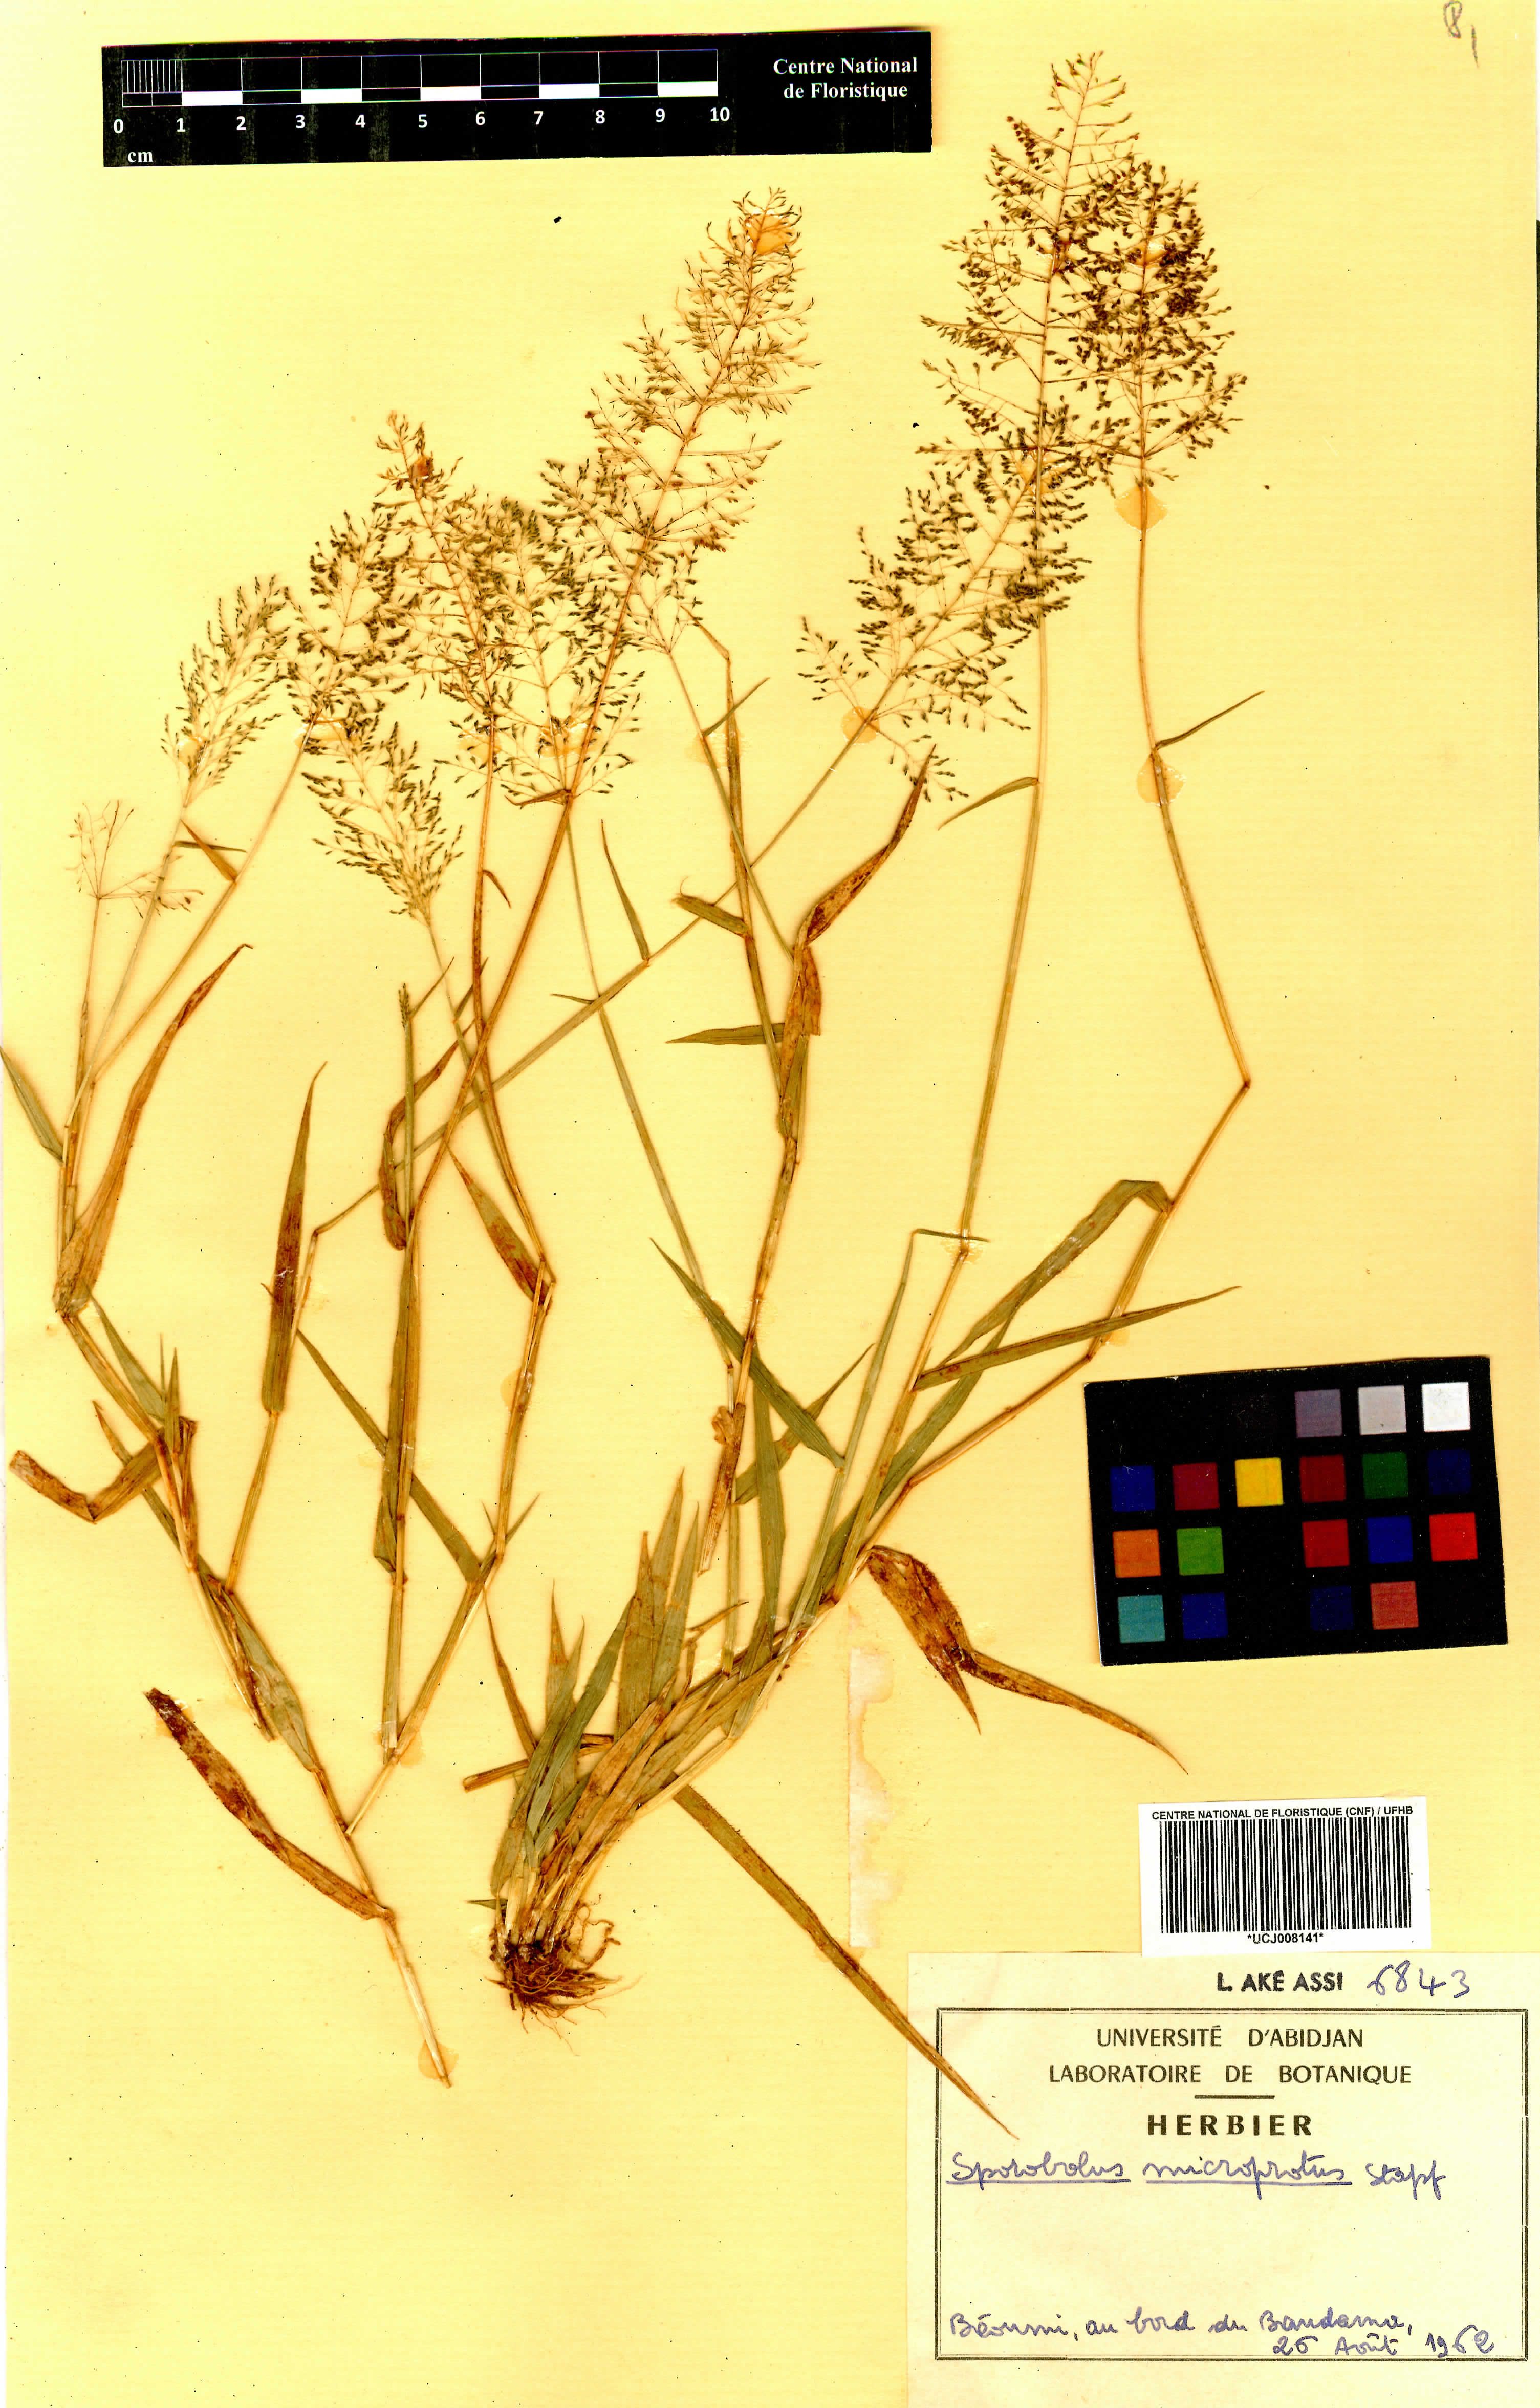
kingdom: Plantae
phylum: Tracheophyta
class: Liliopsida
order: Poales
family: Poaceae
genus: Sporobolus
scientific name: Sporobolus microprotus
